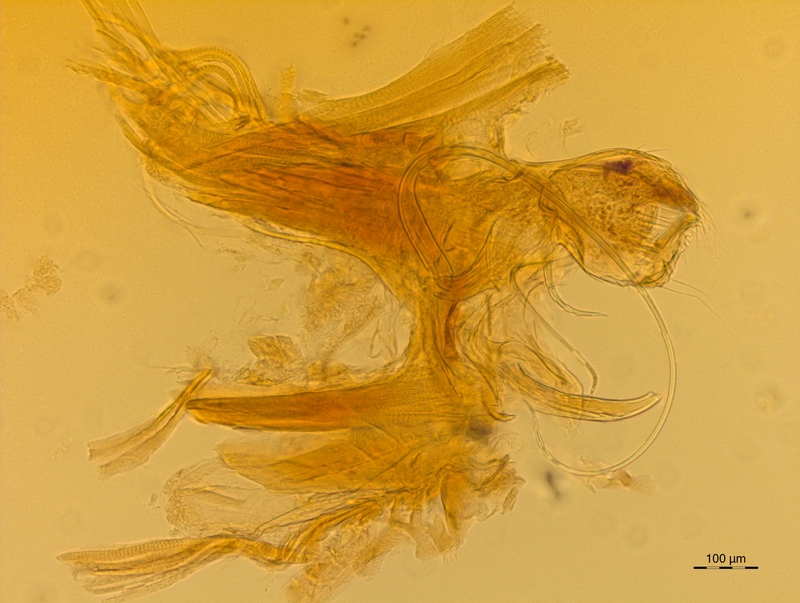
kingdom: Animalia
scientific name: Animalia
